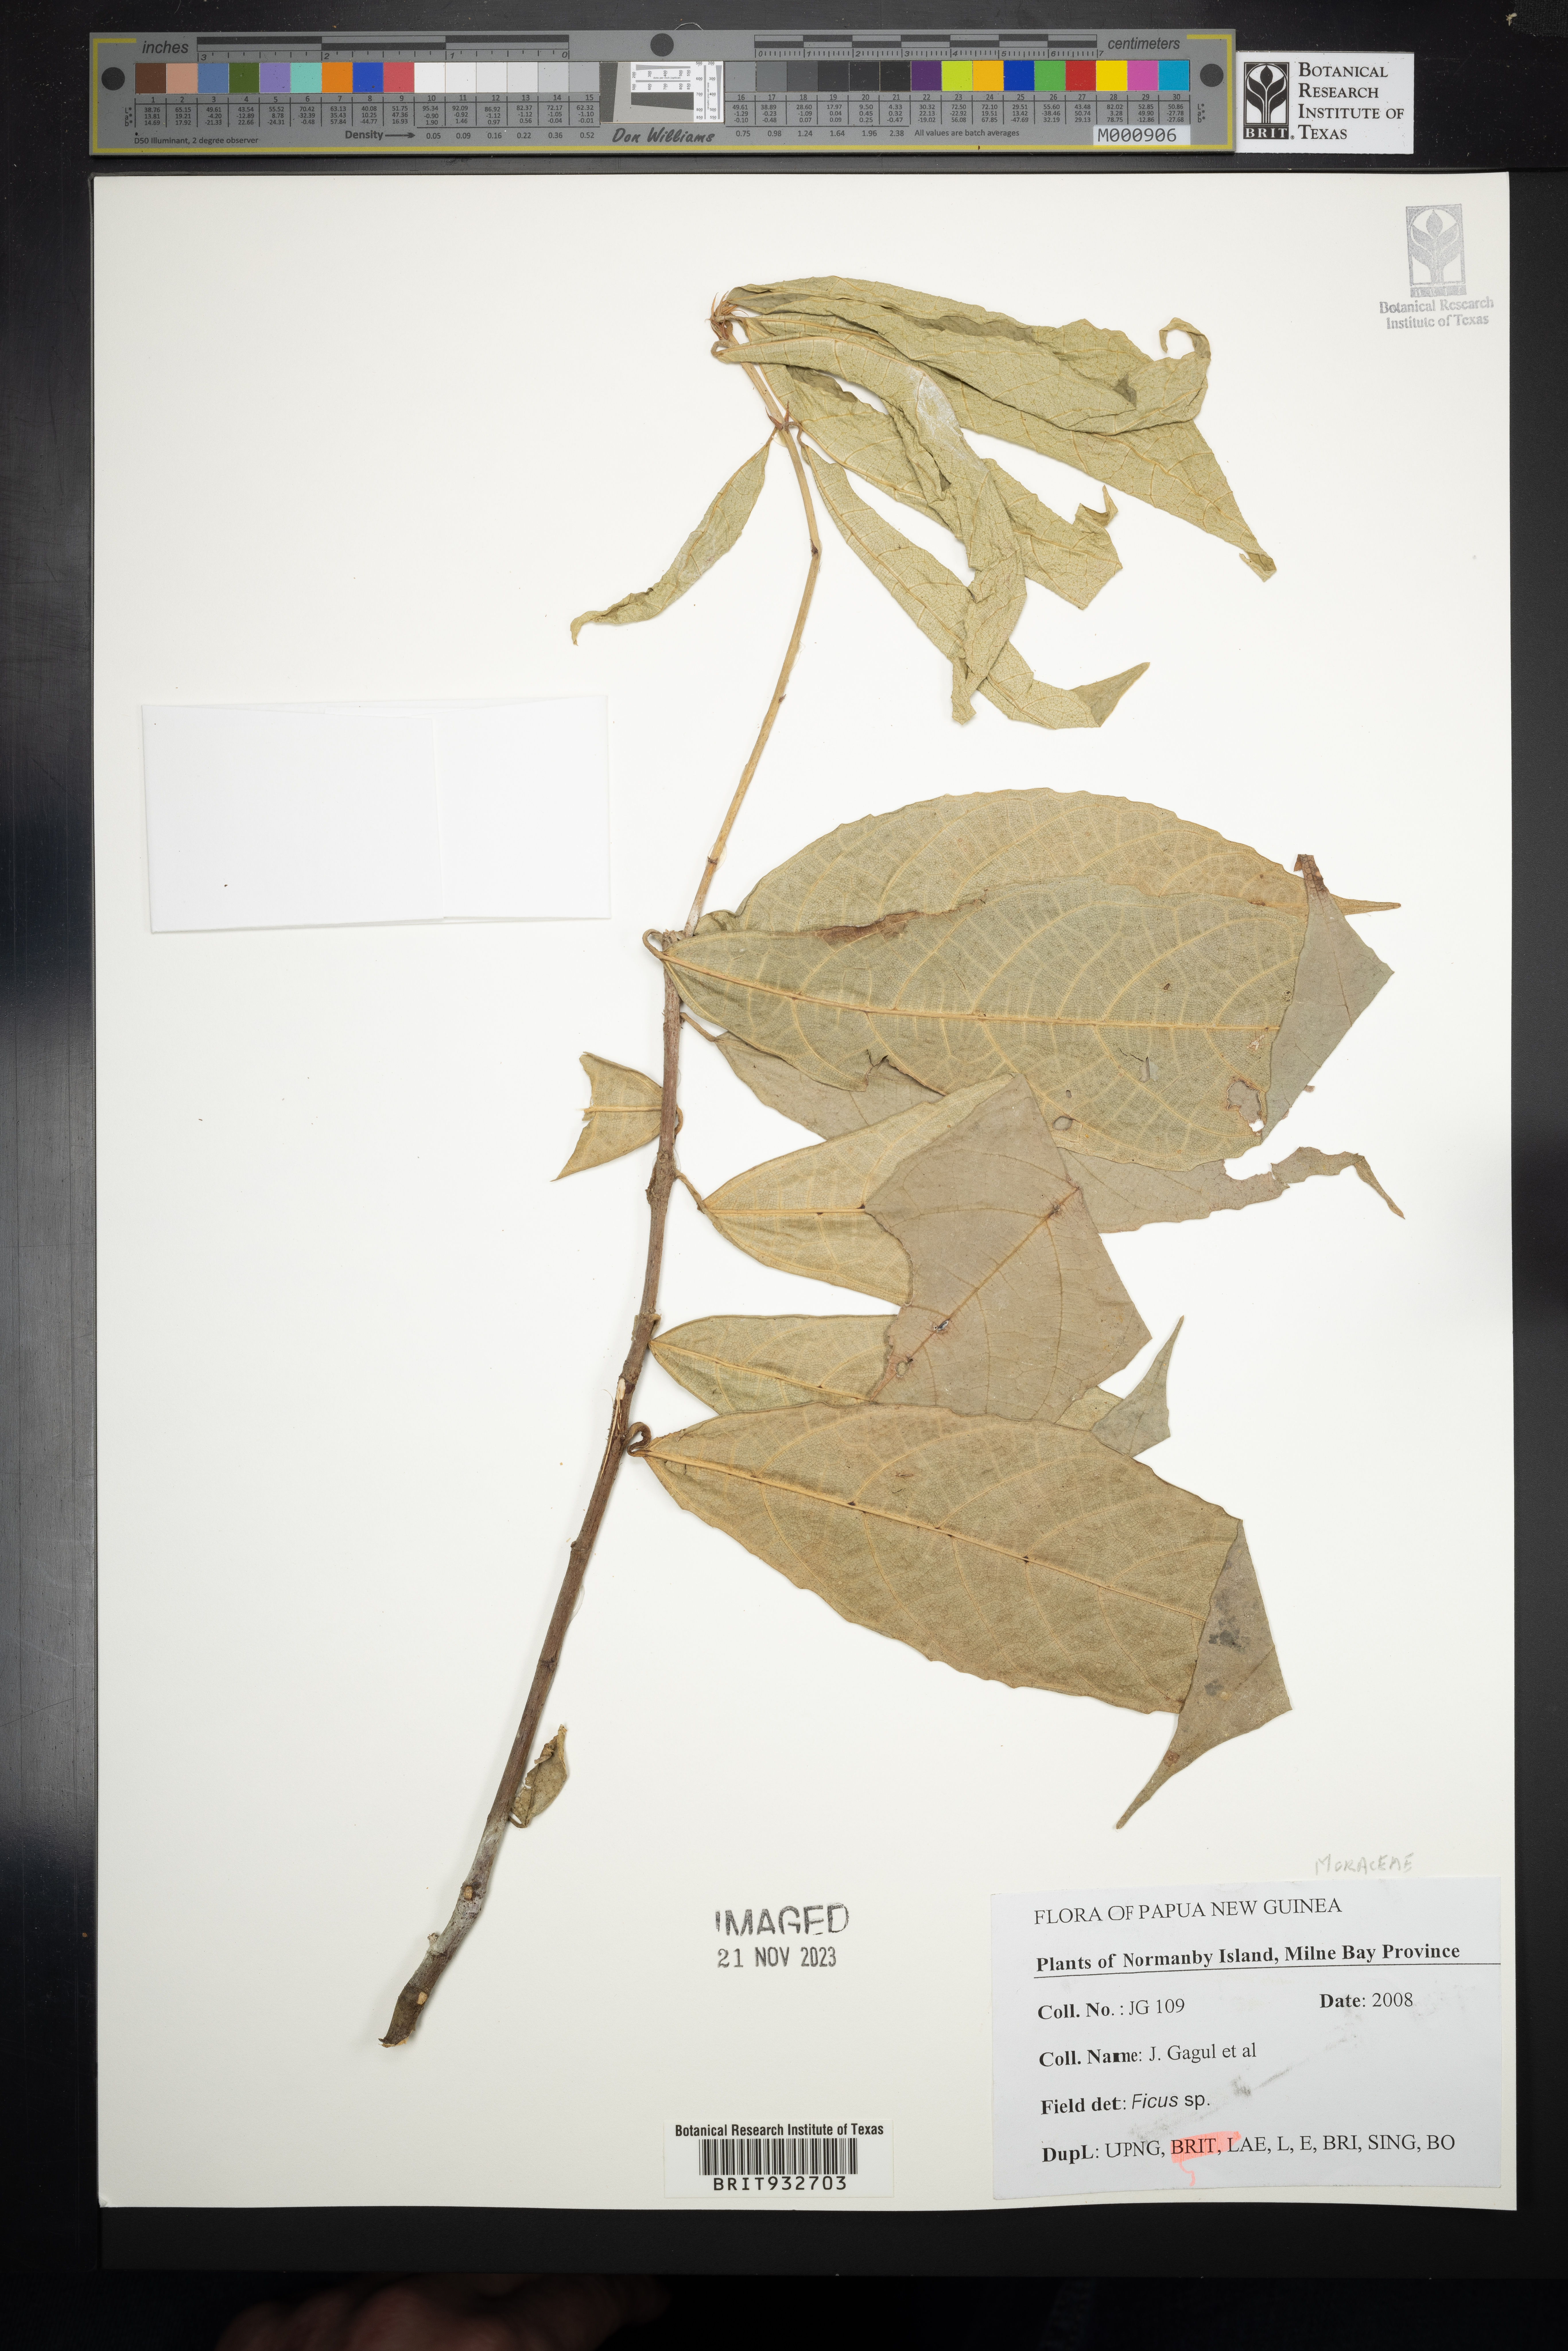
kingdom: Plantae
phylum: Tracheophyta
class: Magnoliopsida
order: Rosales
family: Moraceae
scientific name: Moraceae
